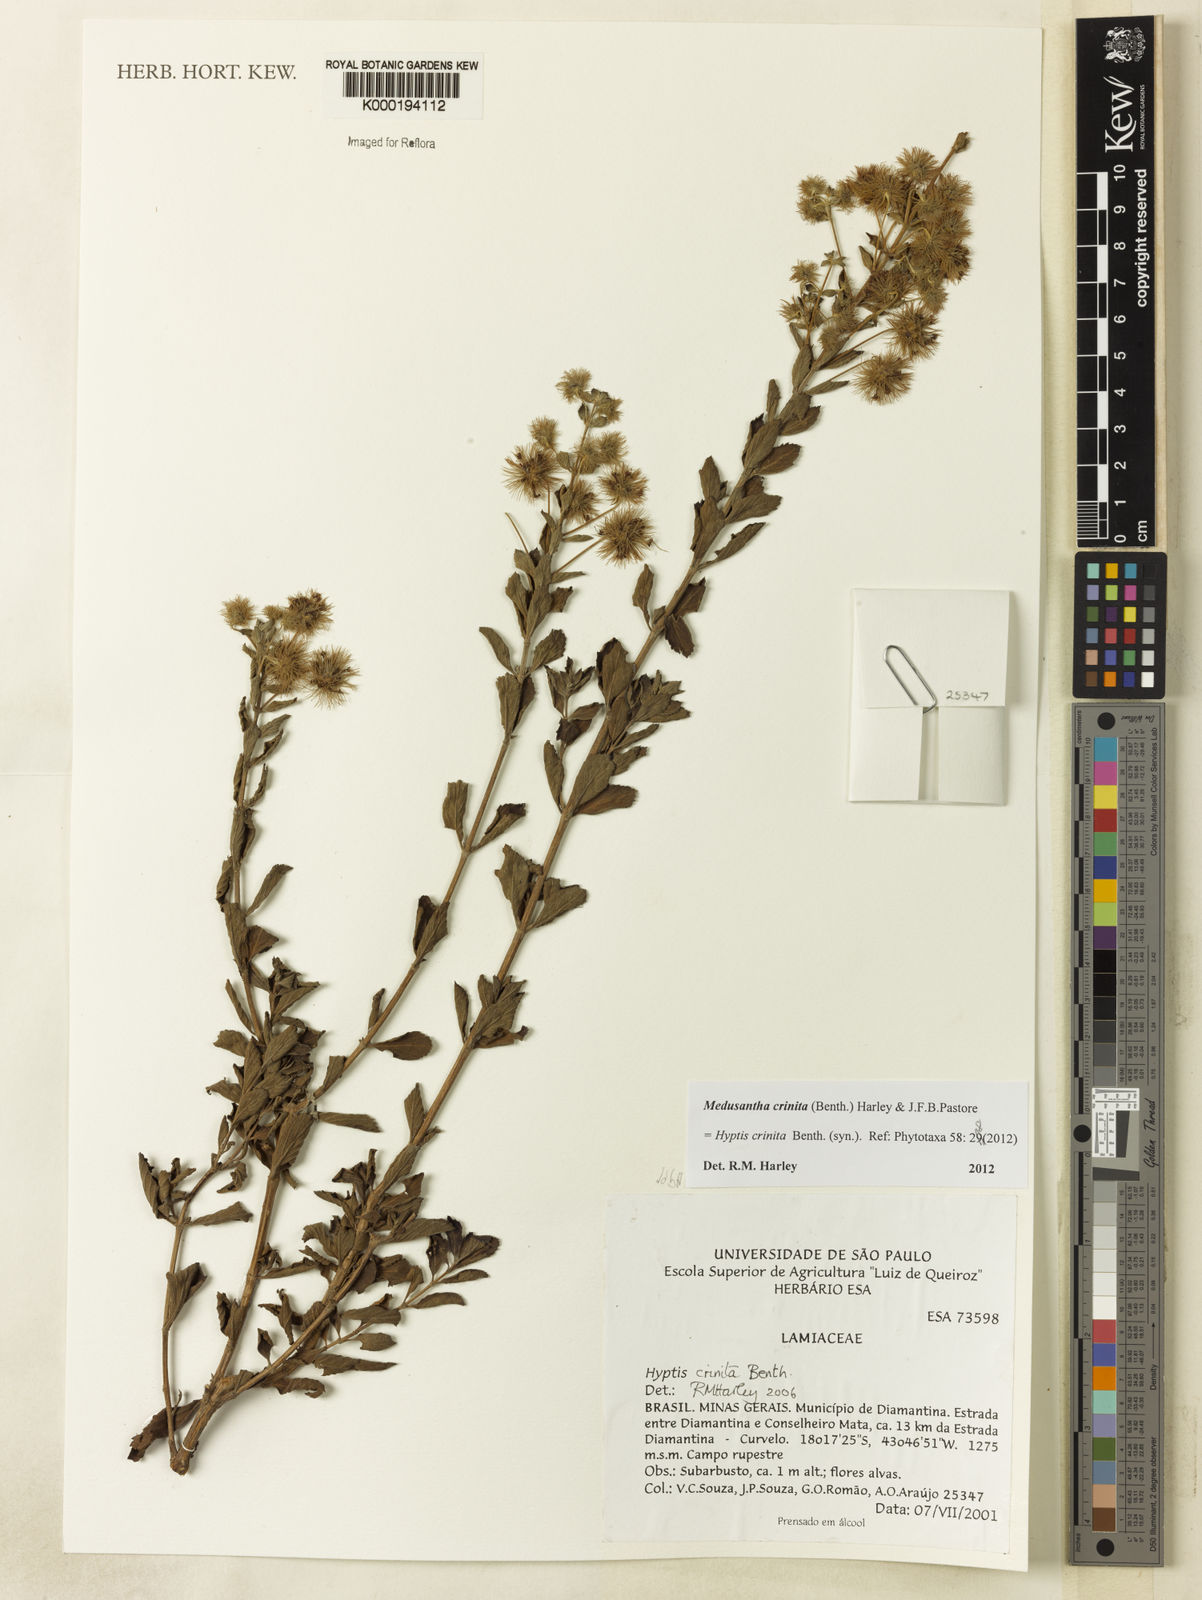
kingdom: Plantae
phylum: Tracheophyta
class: Magnoliopsida
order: Lamiales
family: Lamiaceae
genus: Medusantha
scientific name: Medusantha crinita
